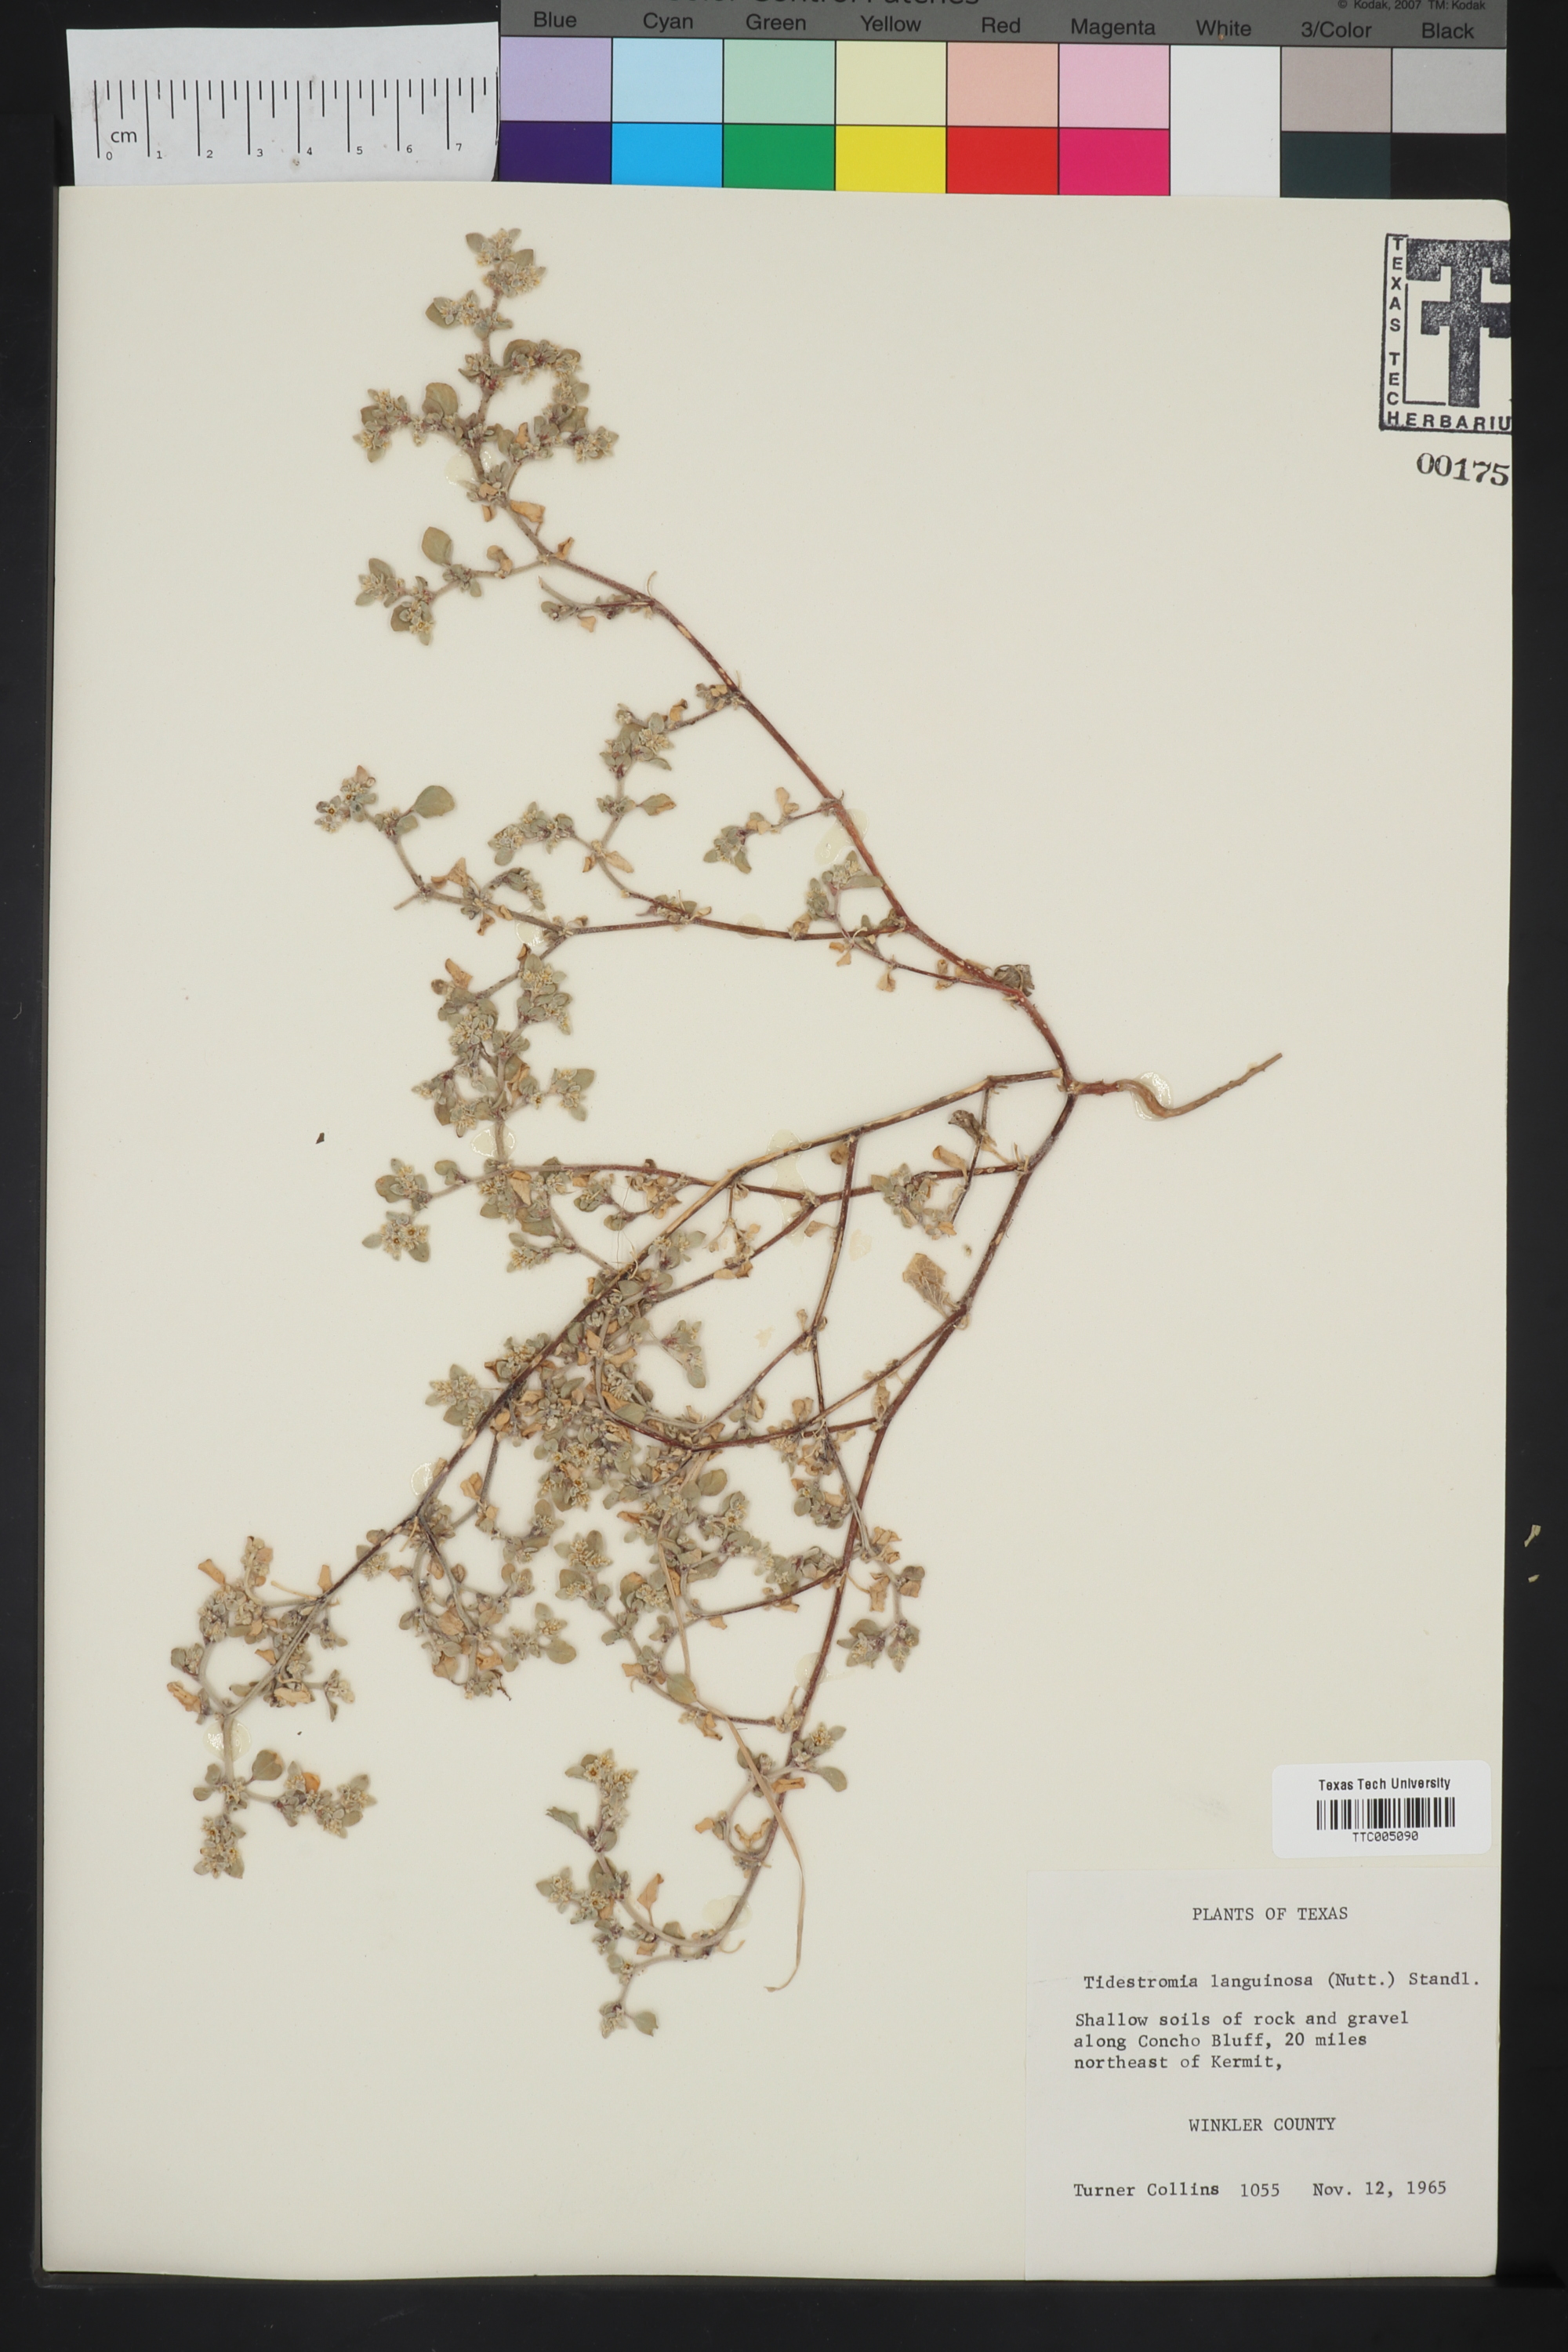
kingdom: Plantae
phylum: Tracheophyta
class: Magnoliopsida
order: Caryophyllales
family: Amaranthaceae
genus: Tidestromia
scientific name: Tidestromia lanuginosa
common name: Woolly tidestromia
